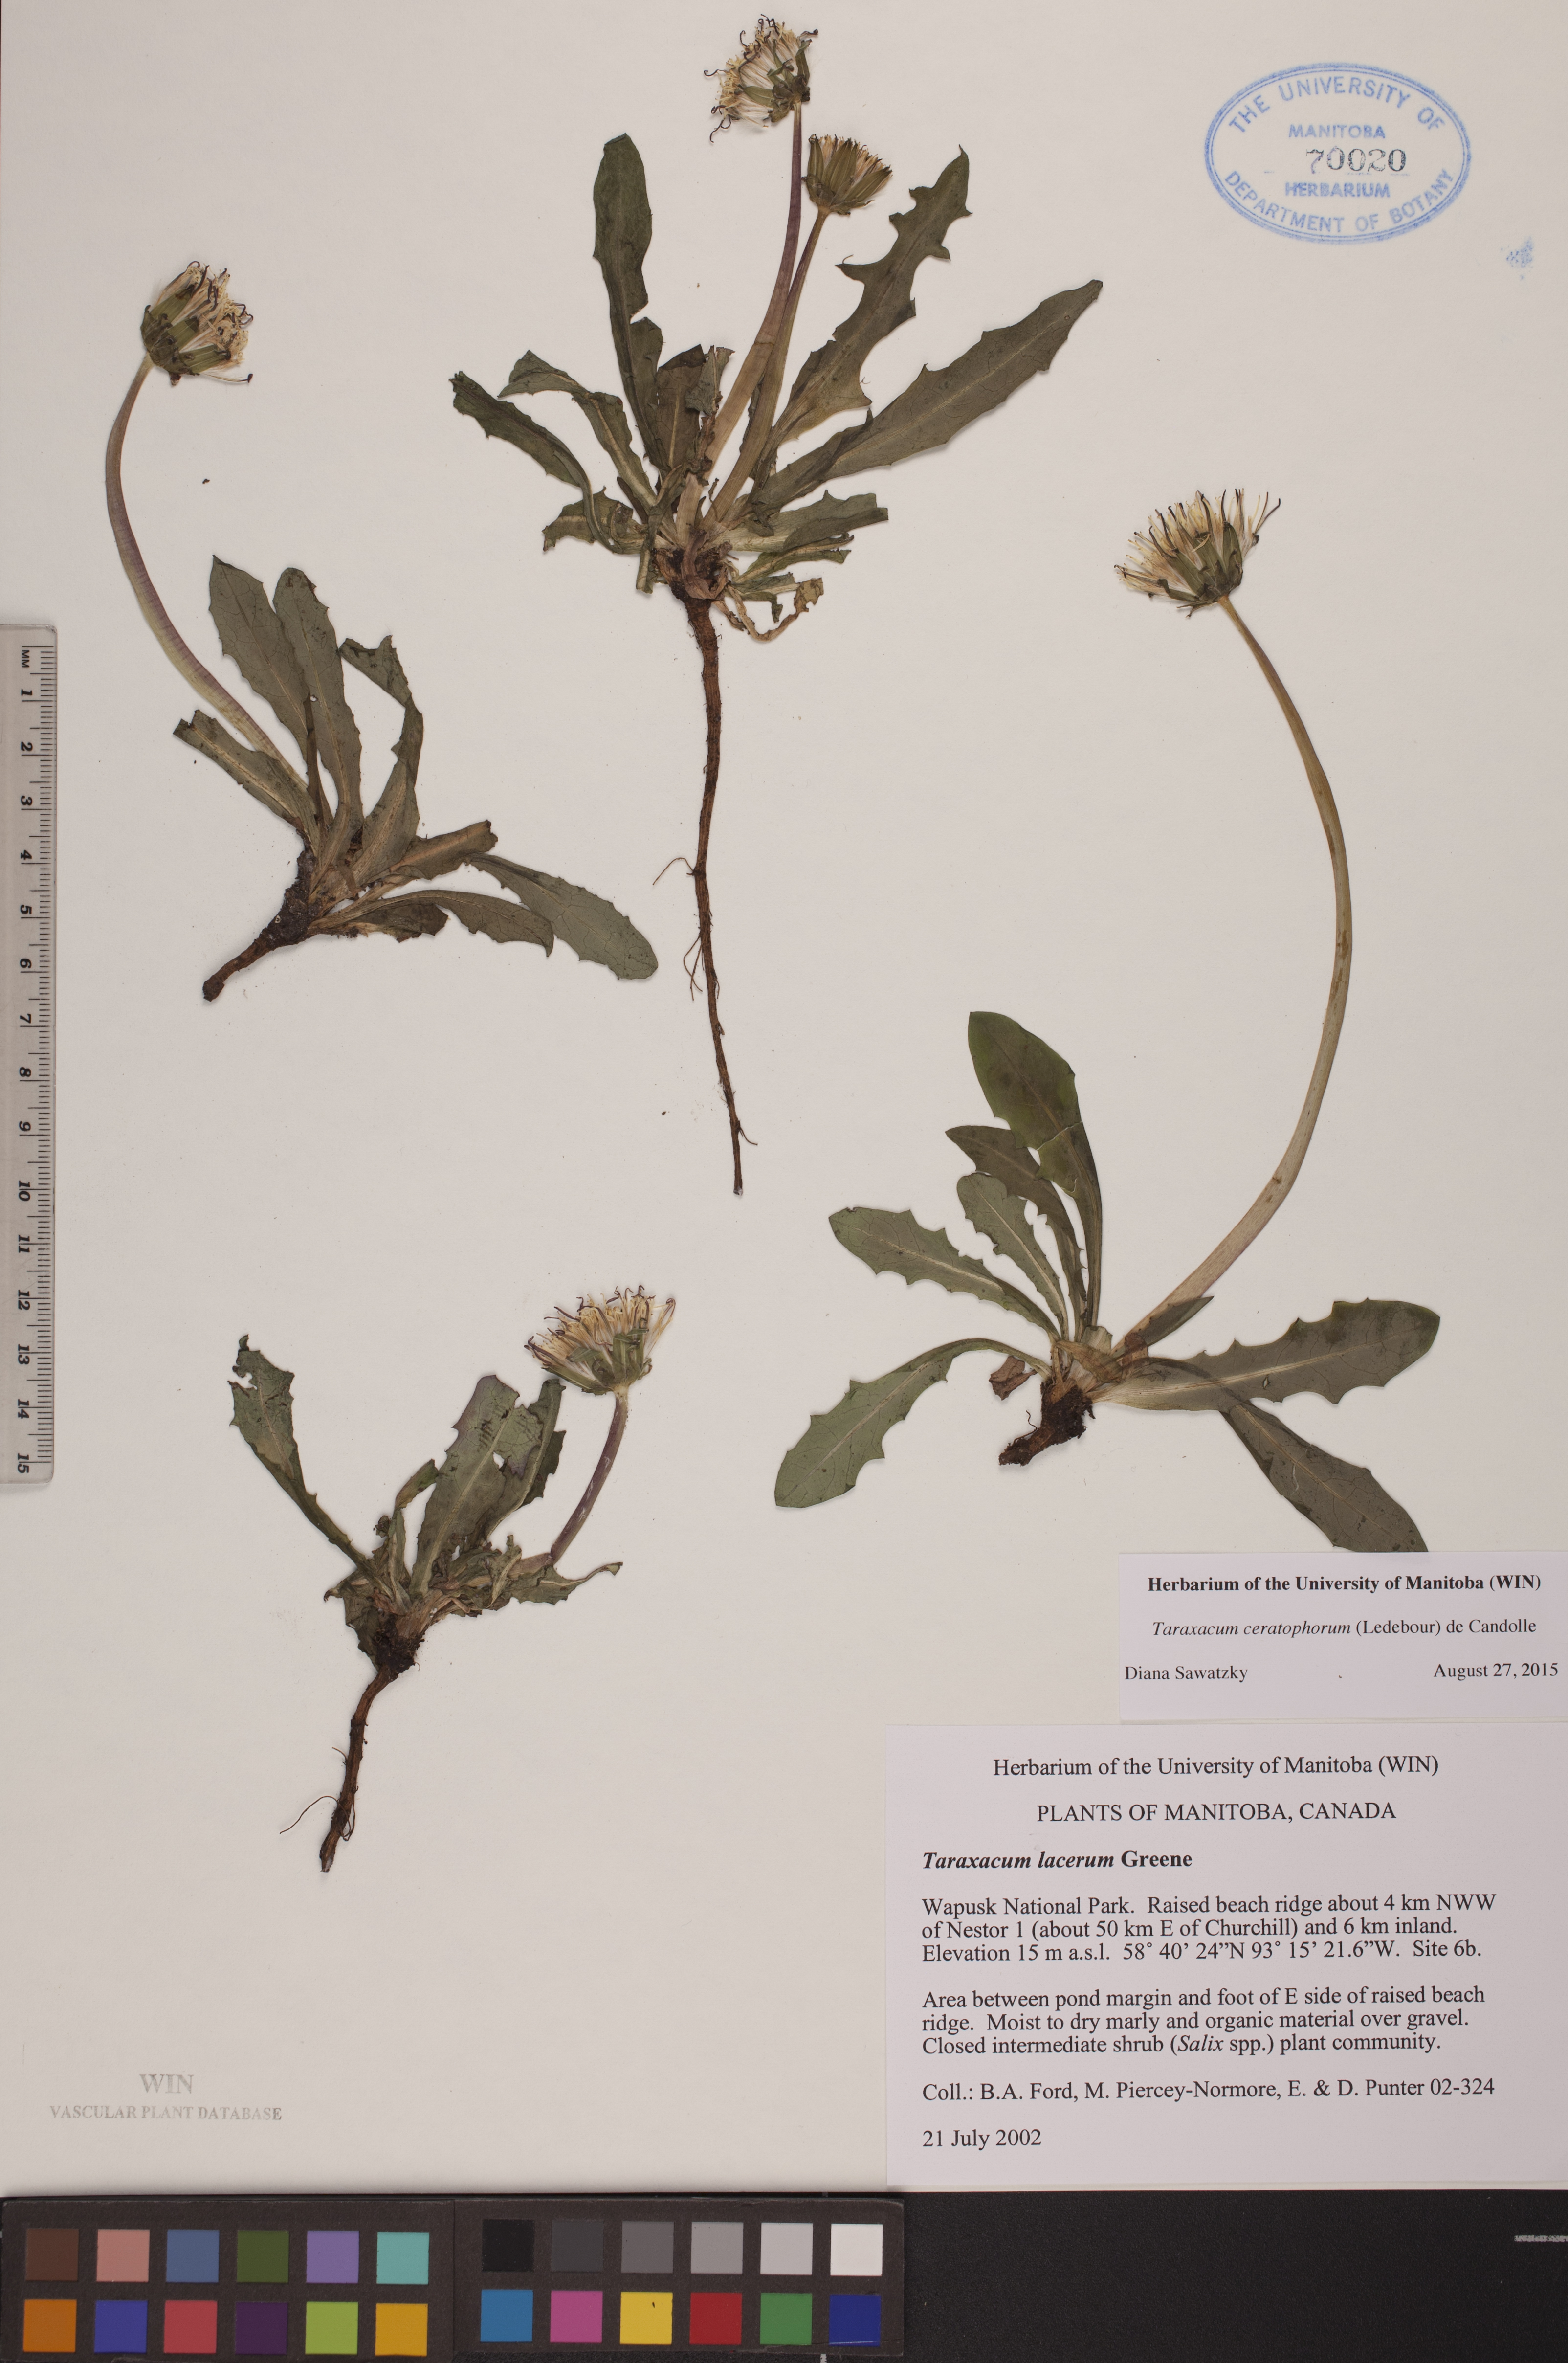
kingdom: Plantae
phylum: Tracheophyta
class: Magnoliopsida
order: Asterales
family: Asteraceae
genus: Taraxacum
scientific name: Taraxacum ceratophorum
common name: Horn-bearing dandelion
